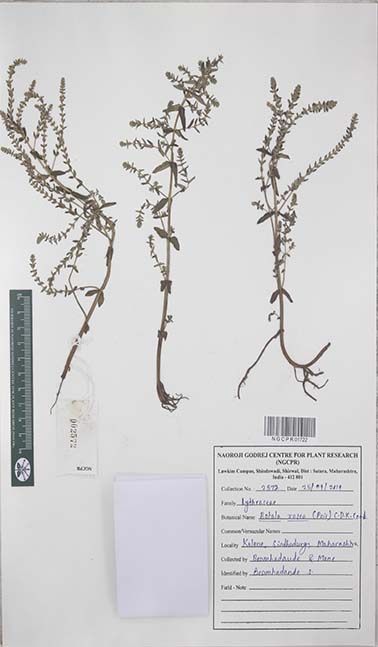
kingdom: Plantae
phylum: Tracheophyta
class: Magnoliopsida
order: Myrtales
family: Lythraceae
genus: Rotala
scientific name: Rotala rosea
